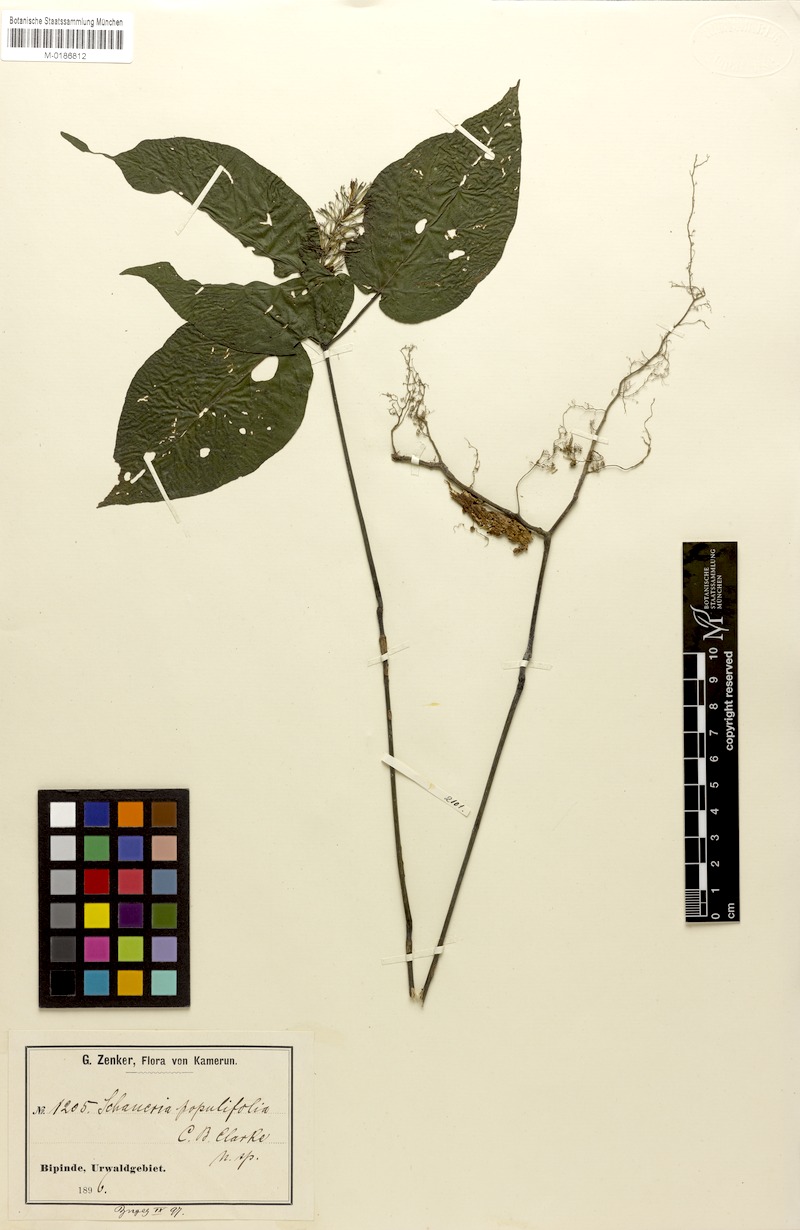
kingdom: Plantae
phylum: Tracheophyta
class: Magnoliopsida
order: Lamiales
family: Acanthaceae
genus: Champluviera
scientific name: Champluviera populifolia
